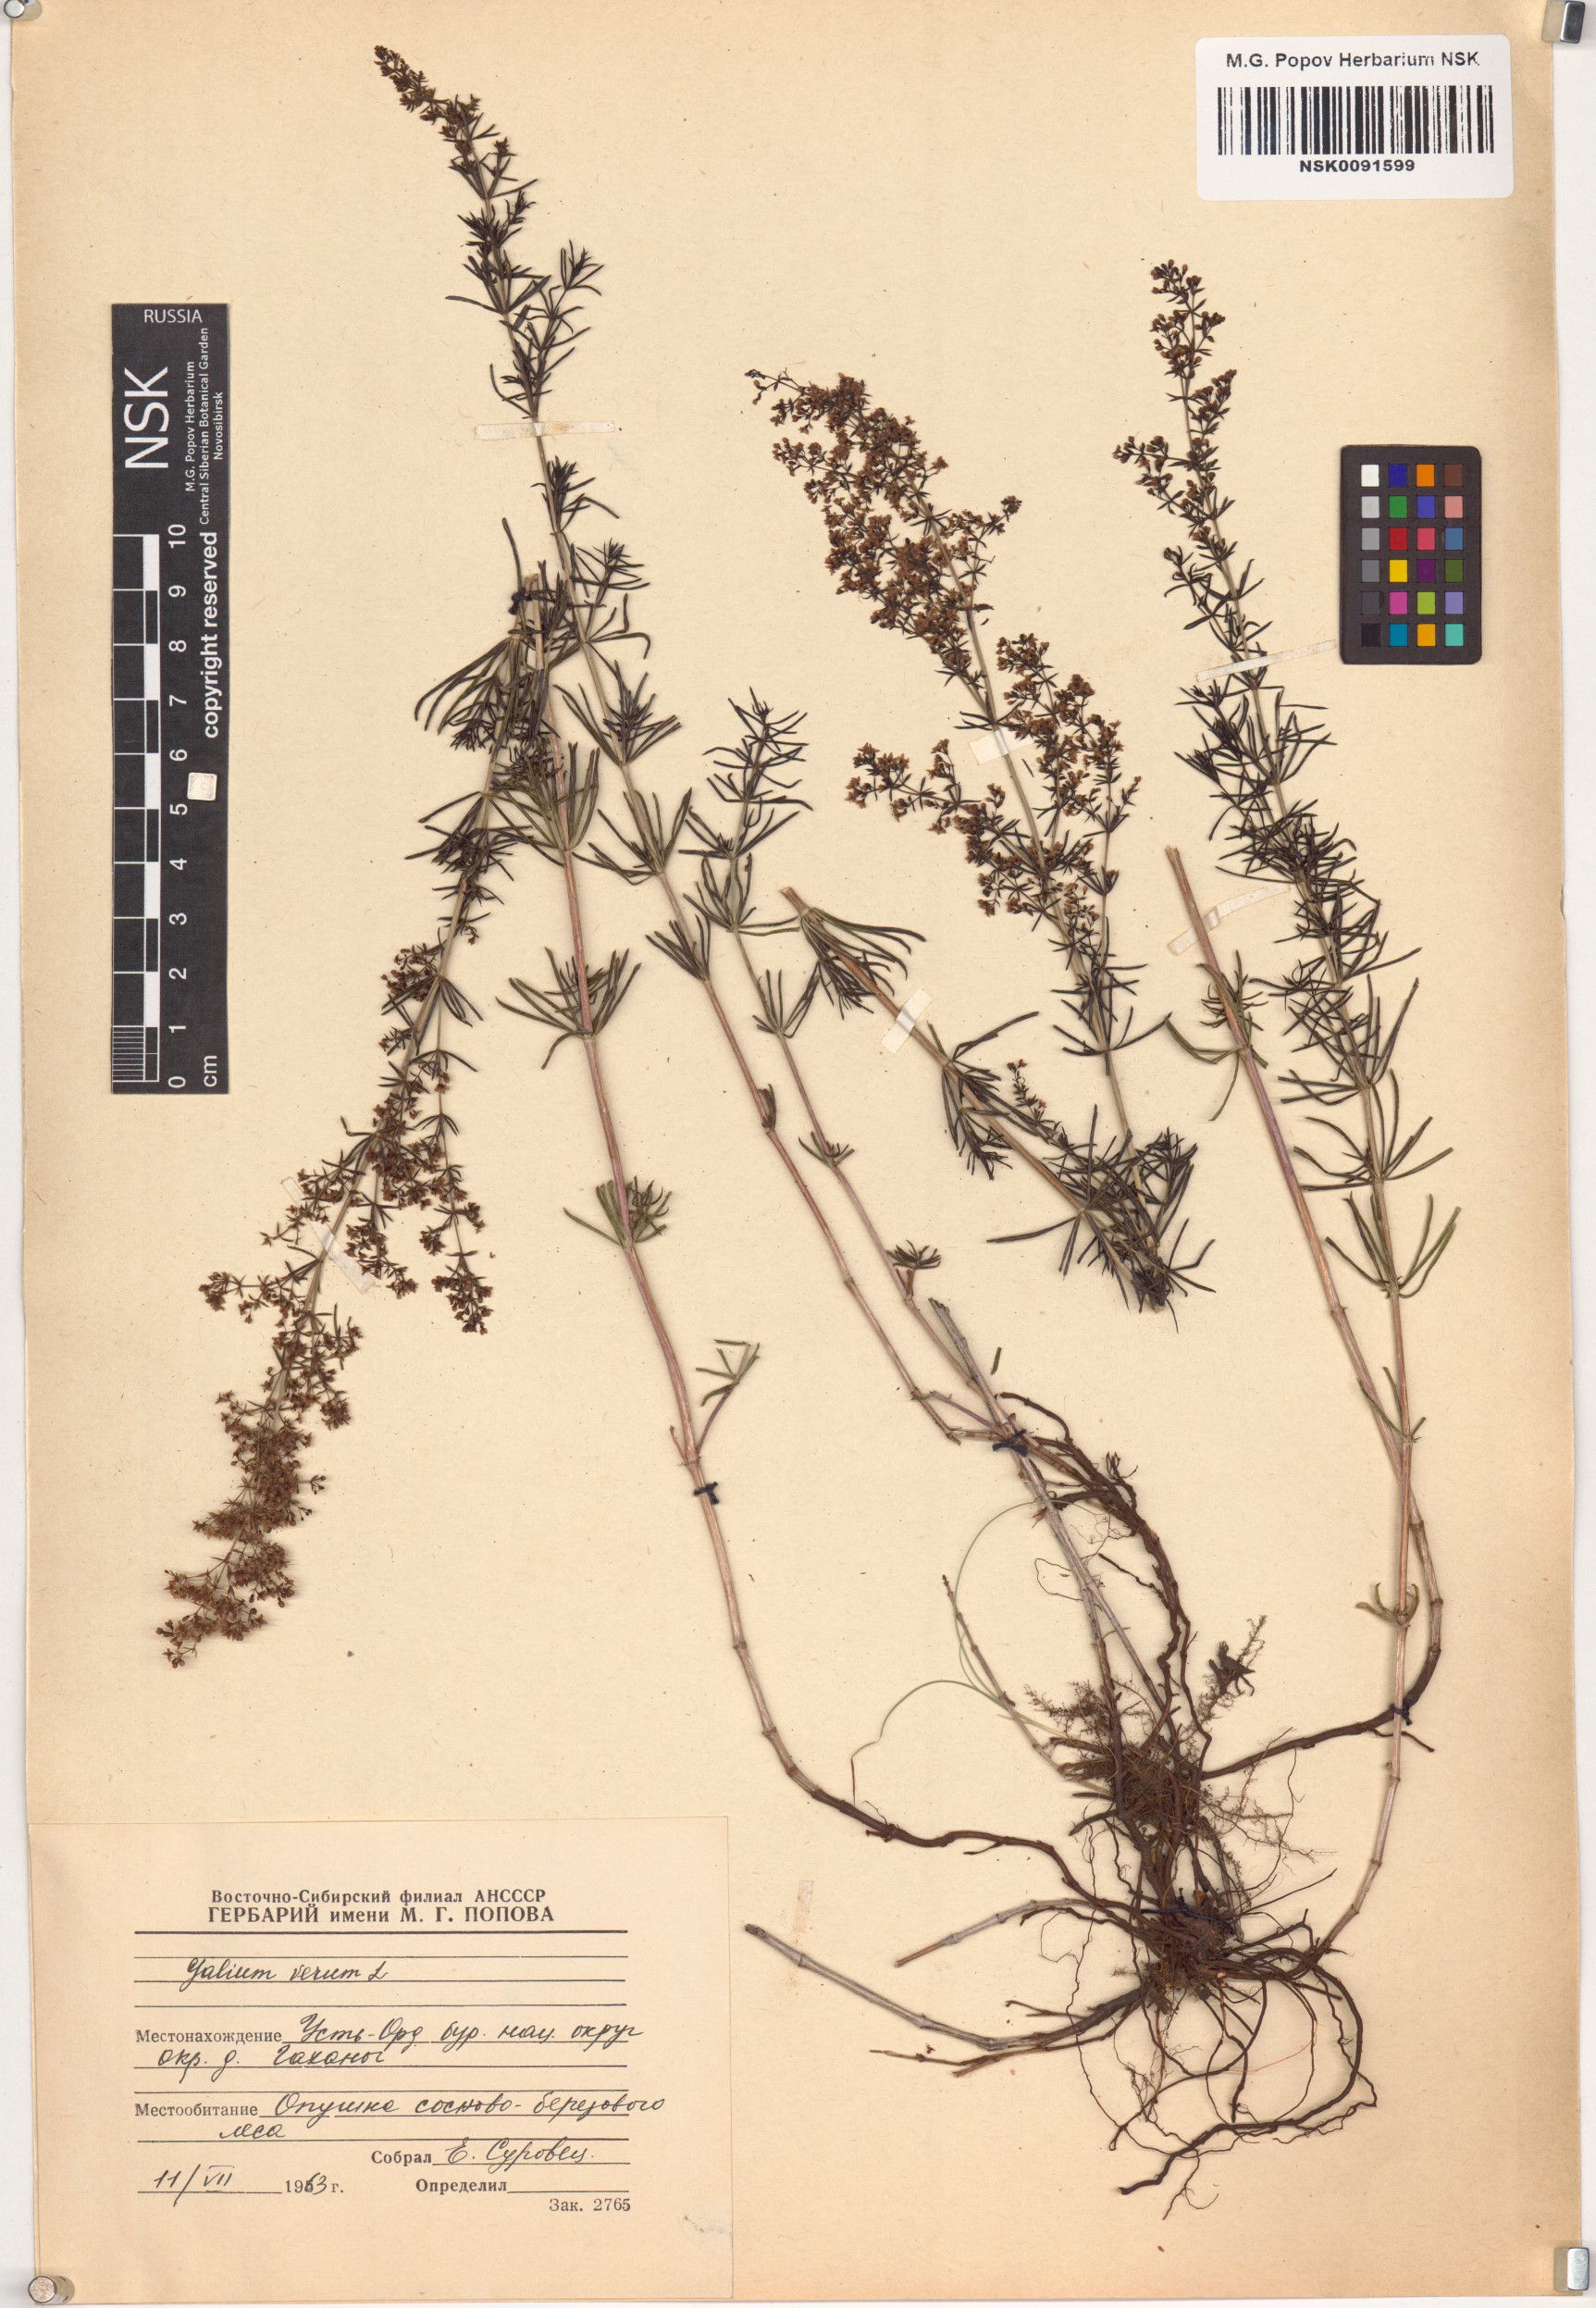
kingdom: Plantae
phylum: Tracheophyta
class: Magnoliopsida
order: Gentianales
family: Rubiaceae
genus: Galium
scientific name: Galium verum
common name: Lady's bedstraw
